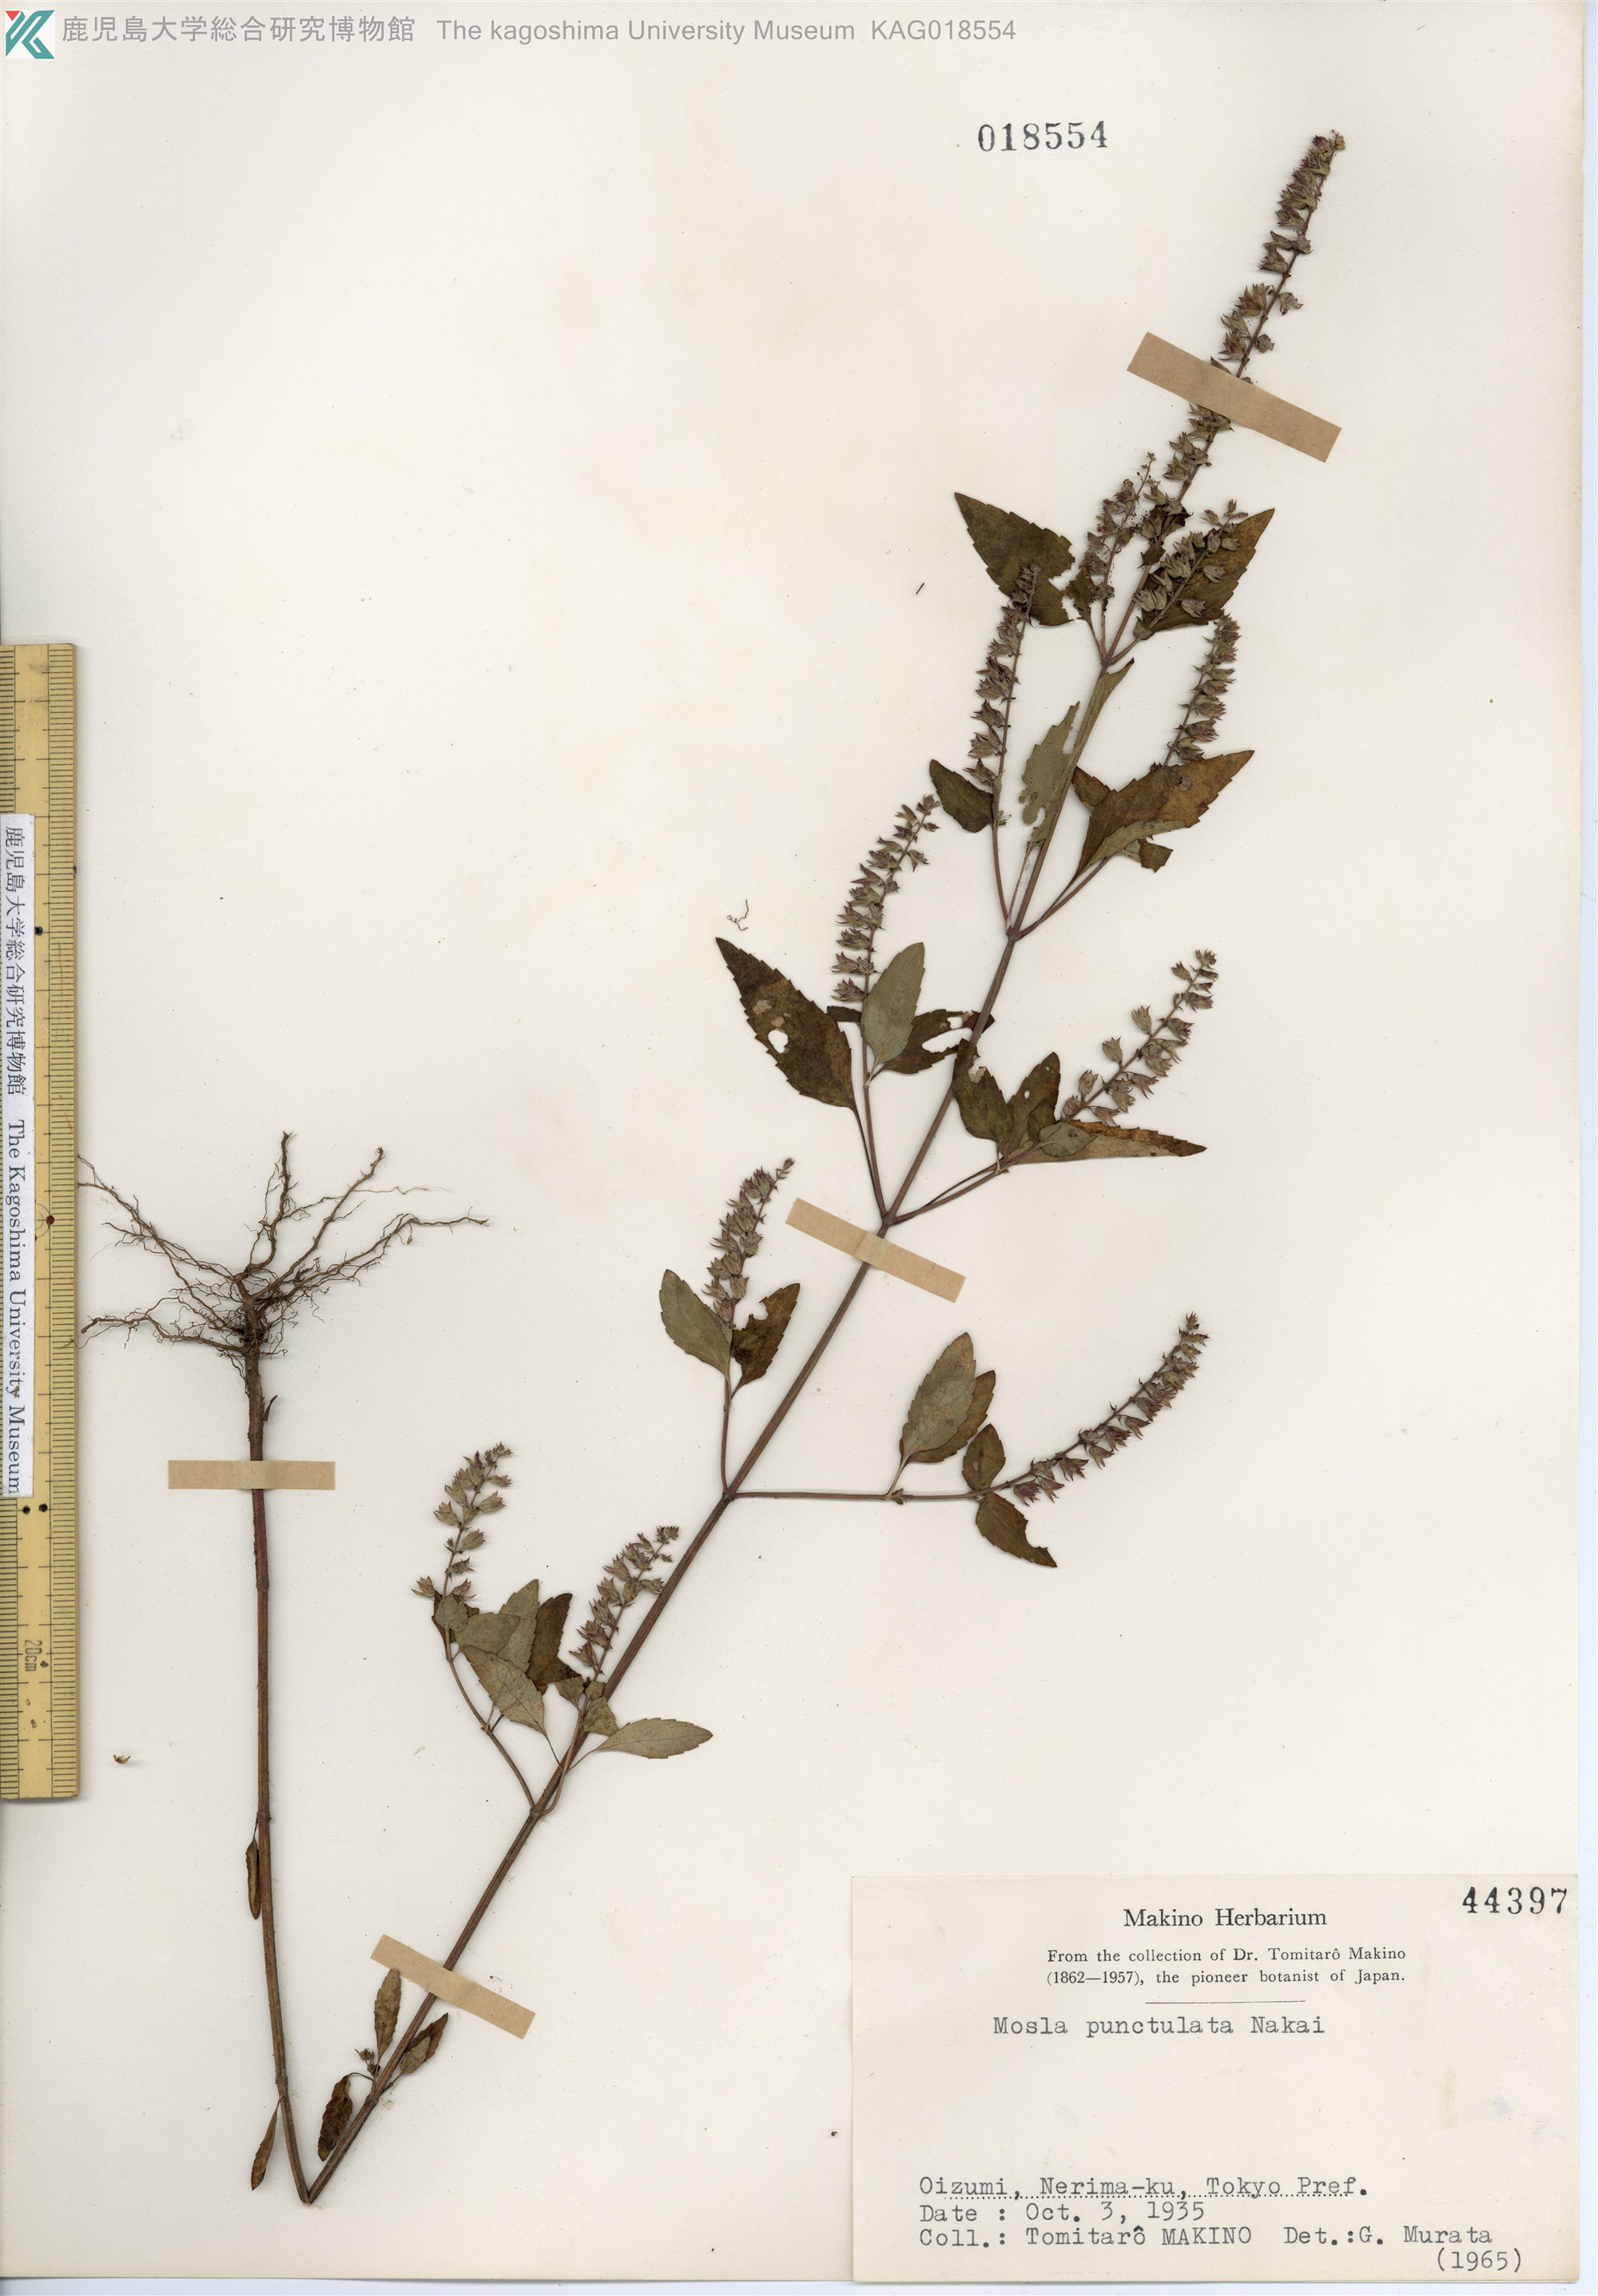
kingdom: Plantae
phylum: Tracheophyta
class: Magnoliopsida
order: Lamiales
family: Lamiaceae
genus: Mosla
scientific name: Mosla scabra
